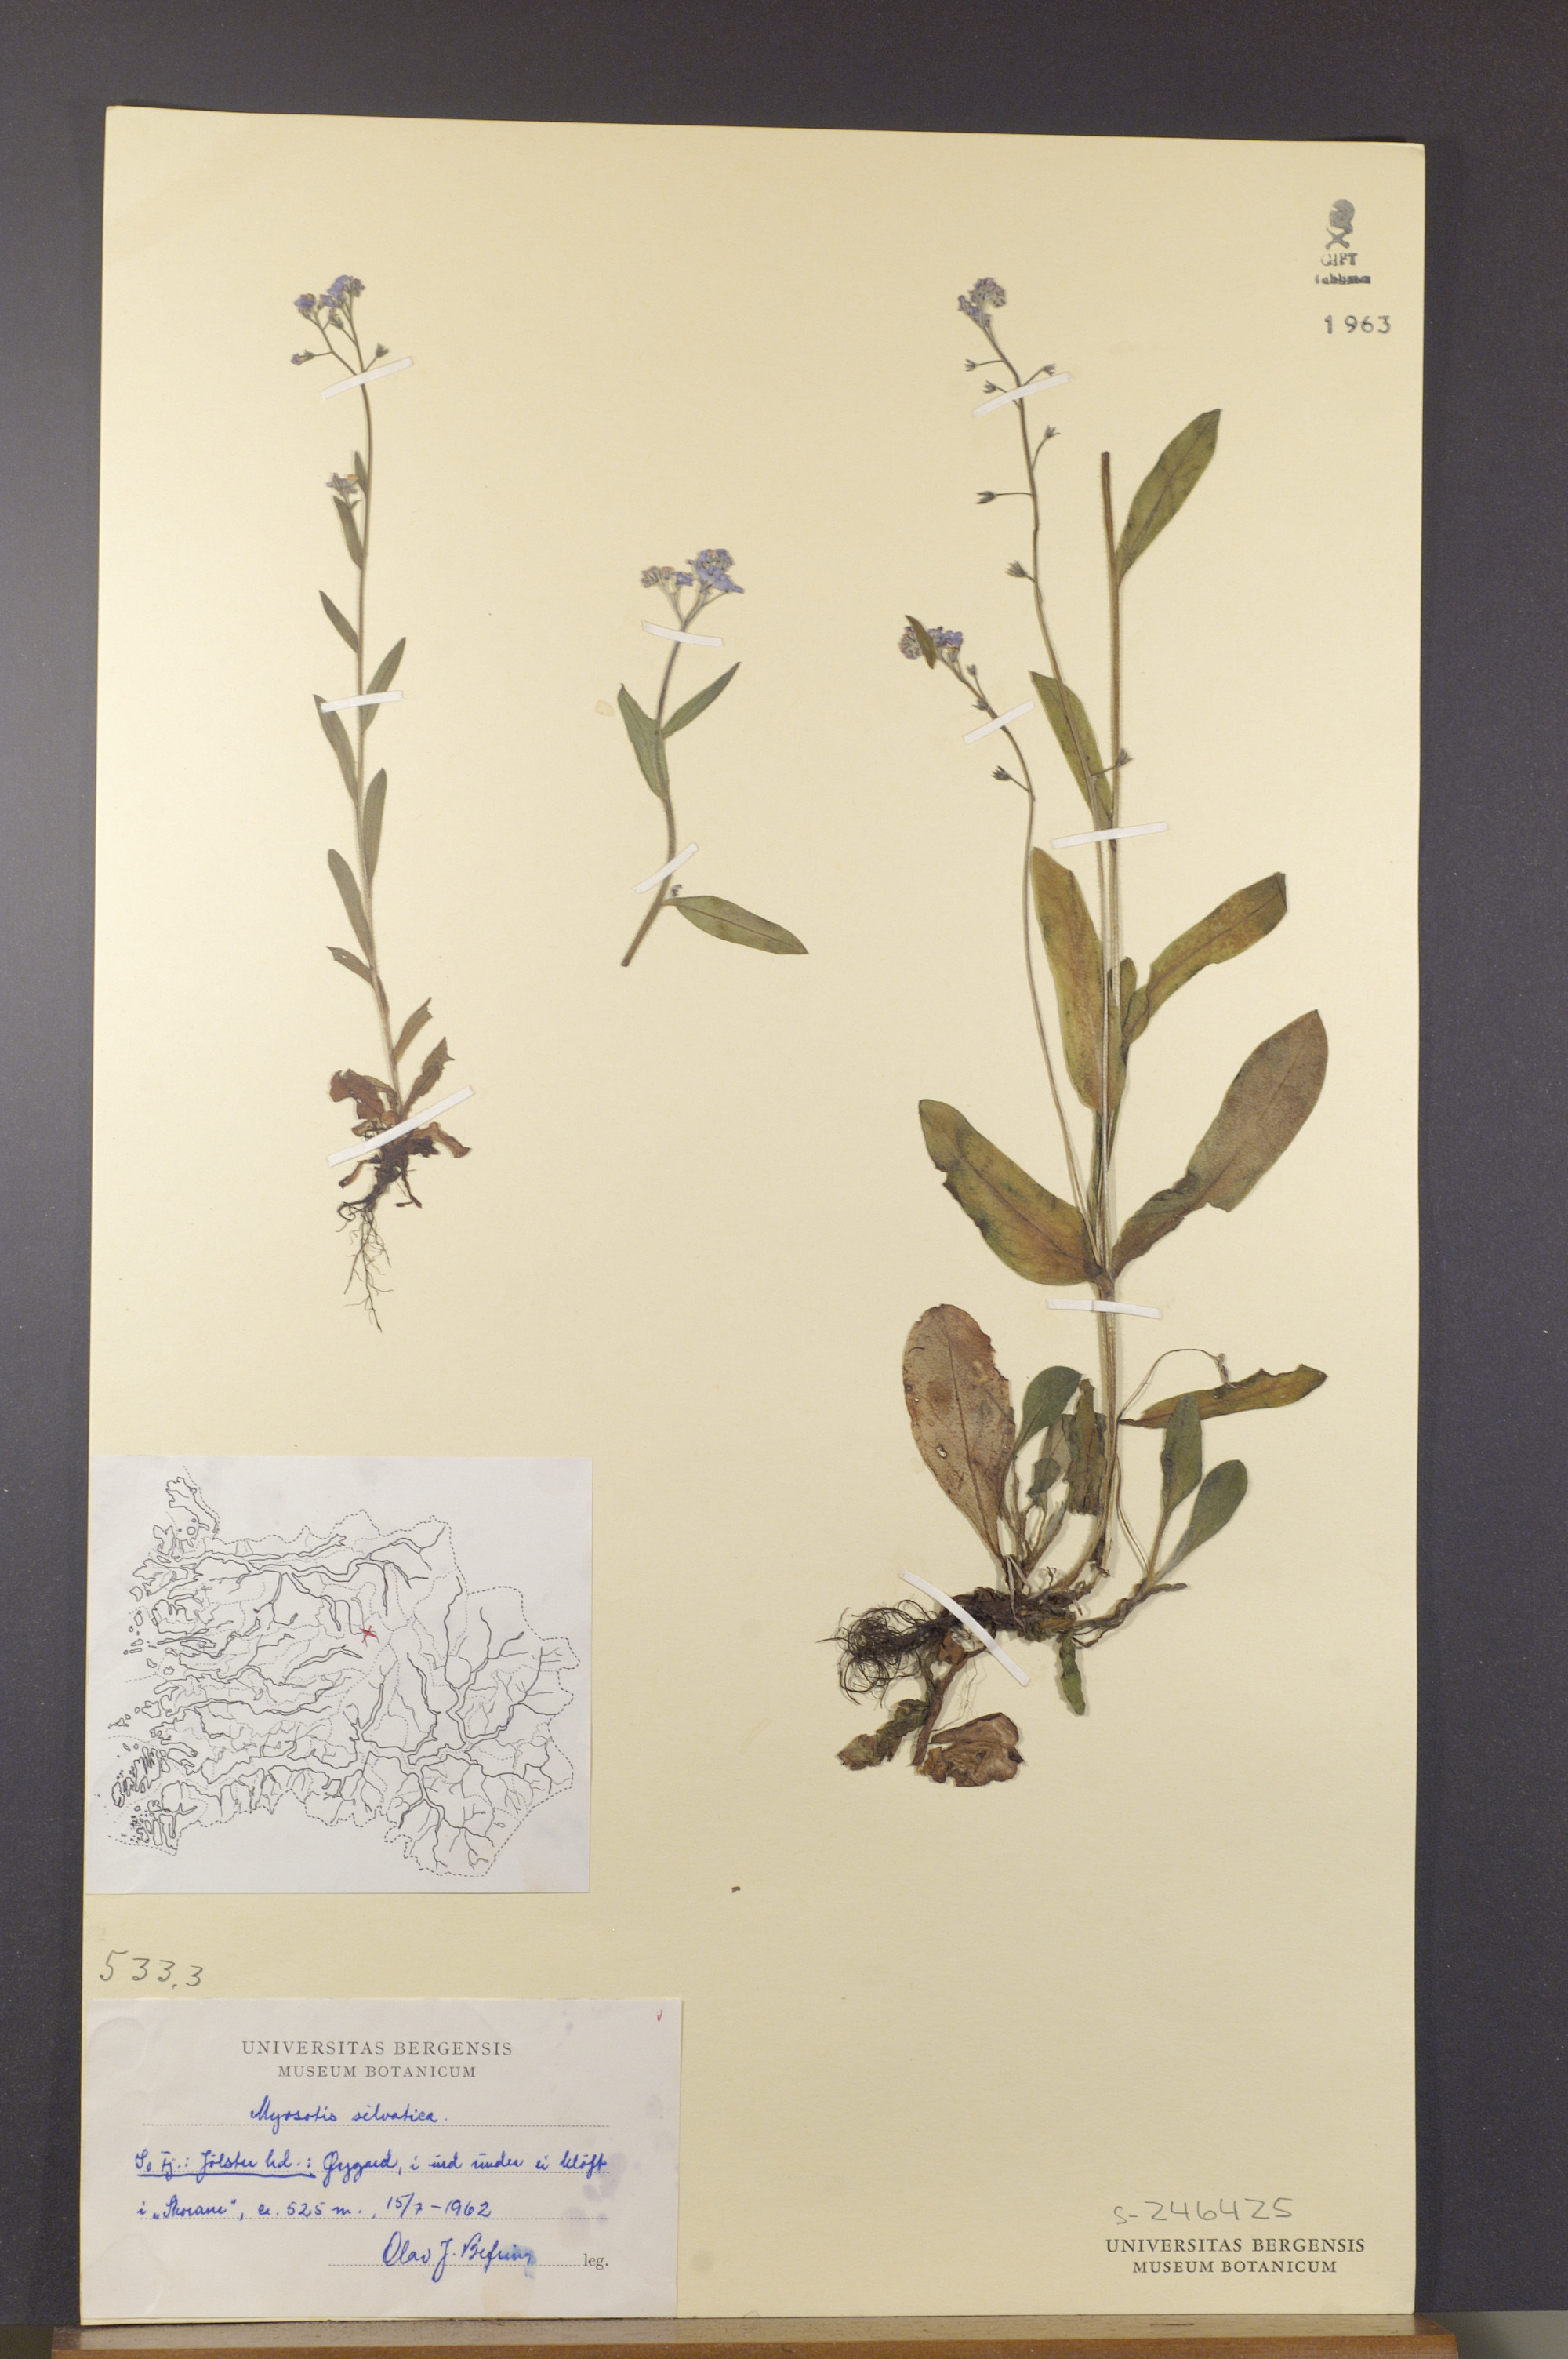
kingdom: Plantae
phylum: Tracheophyta
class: Magnoliopsida
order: Boraginales
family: Boraginaceae
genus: Myosotis
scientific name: Myosotis decumbens
